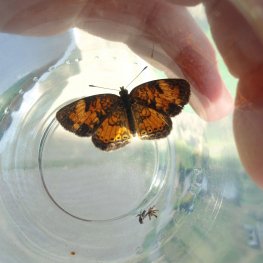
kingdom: Animalia
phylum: Arthropoda
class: Insecta
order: Lepidoptera
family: Nymphalidae
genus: Phyciodes
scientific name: Phyciodes tharos
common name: Pearl Crescent
